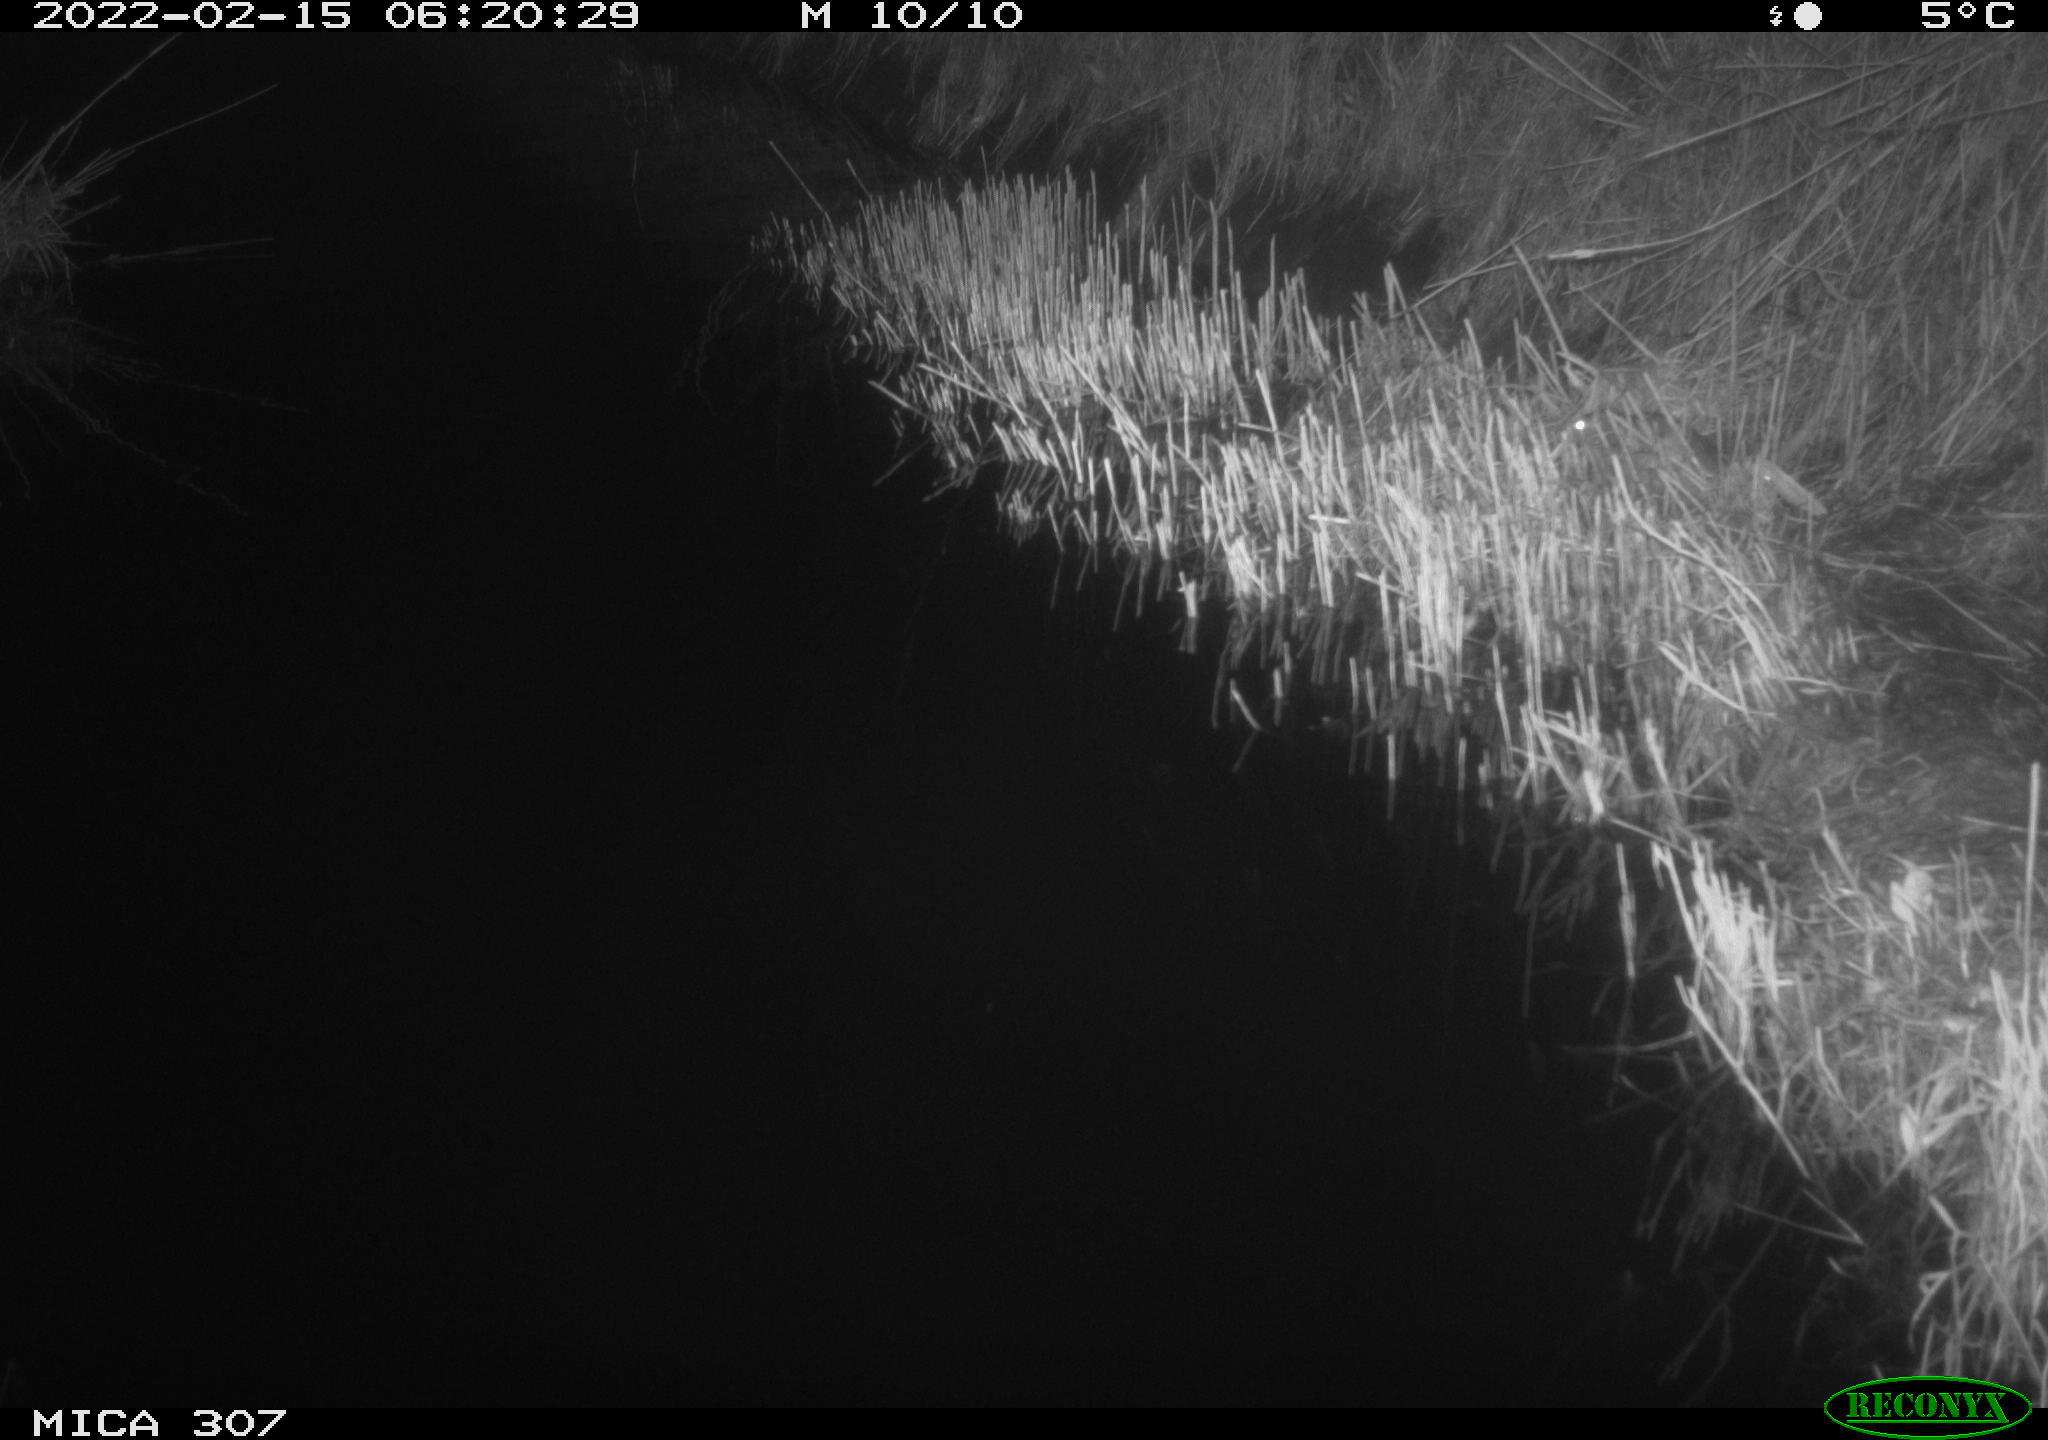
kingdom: Animalia
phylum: Chordata
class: Mammalia
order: Rodentia
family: Muridae
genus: Rattus
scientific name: Rattus norvegicus
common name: Brown rat
